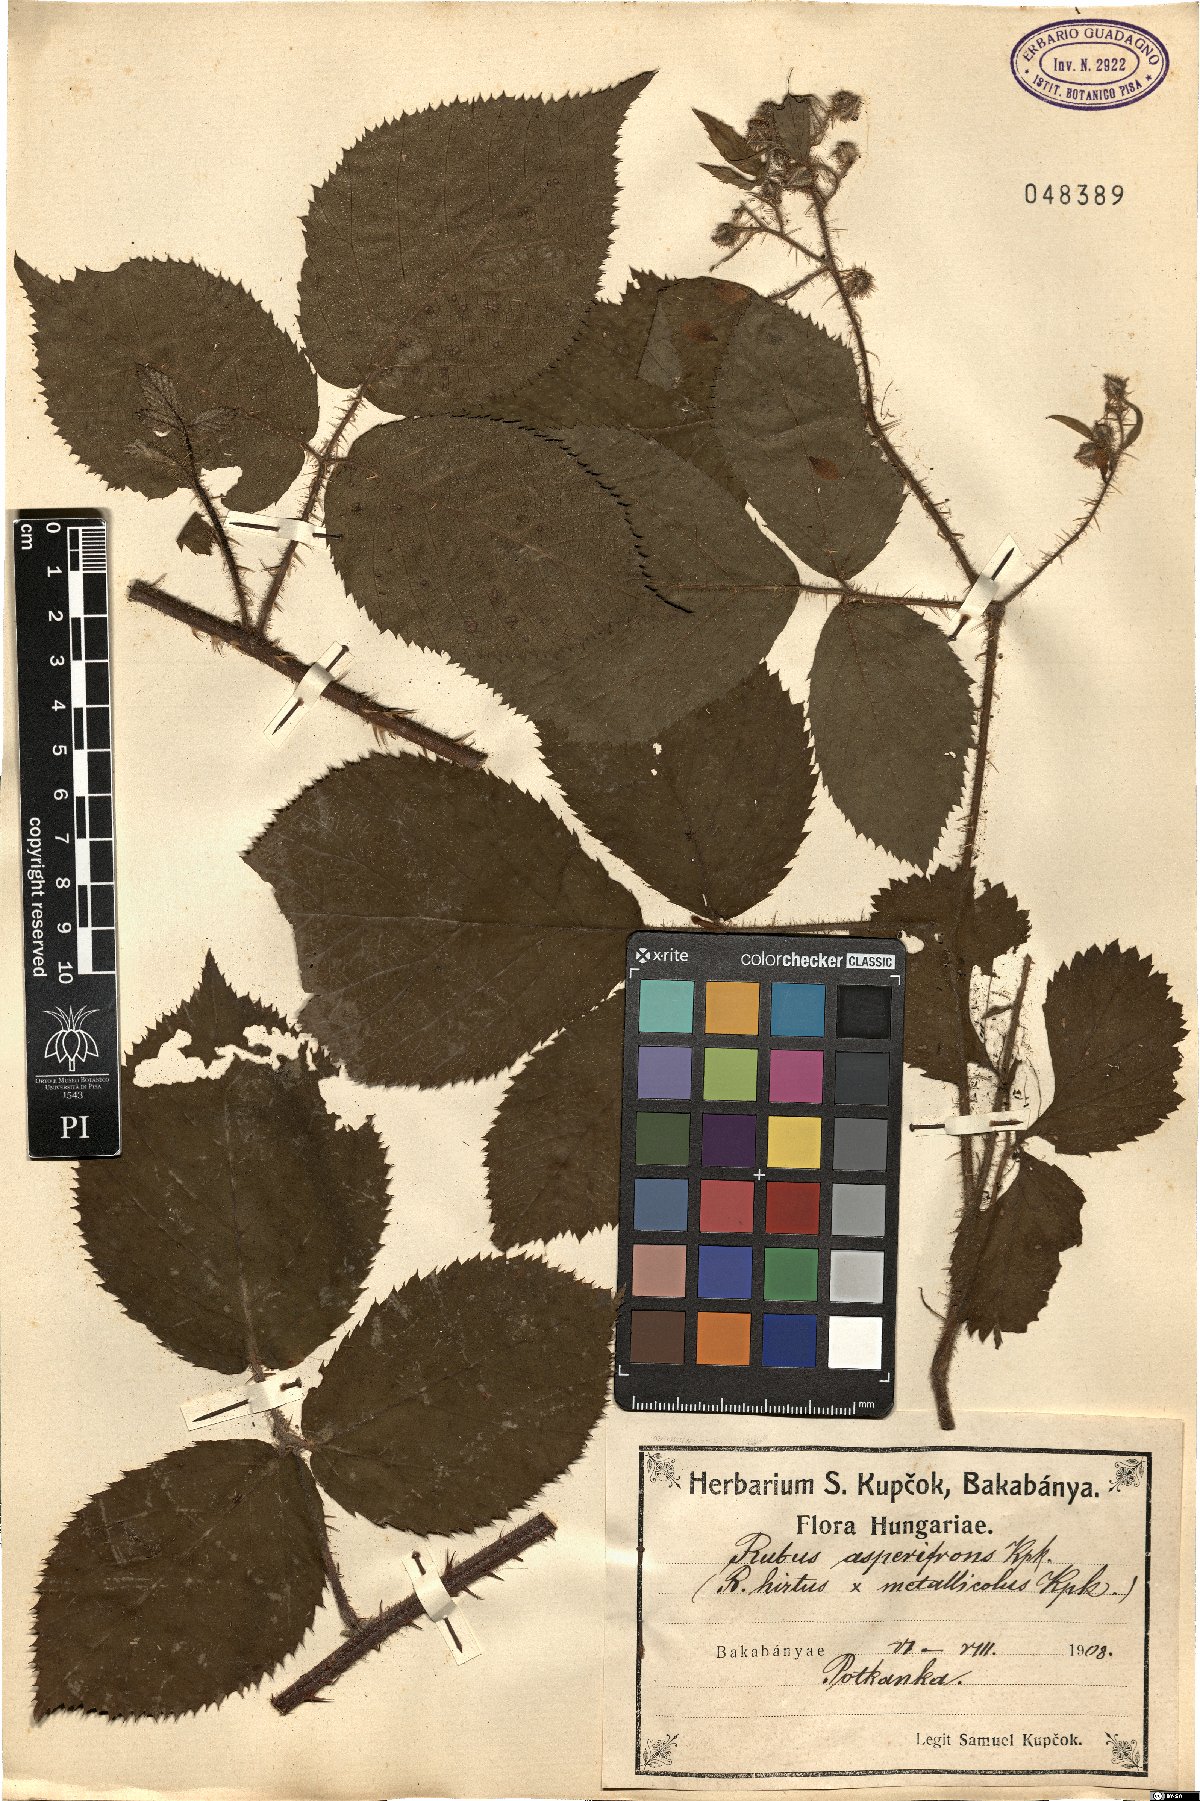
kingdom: Plantae
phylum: Tracheophyta
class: Magnoliopsida
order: Rosales
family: Rosaceae
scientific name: Rosaceae
